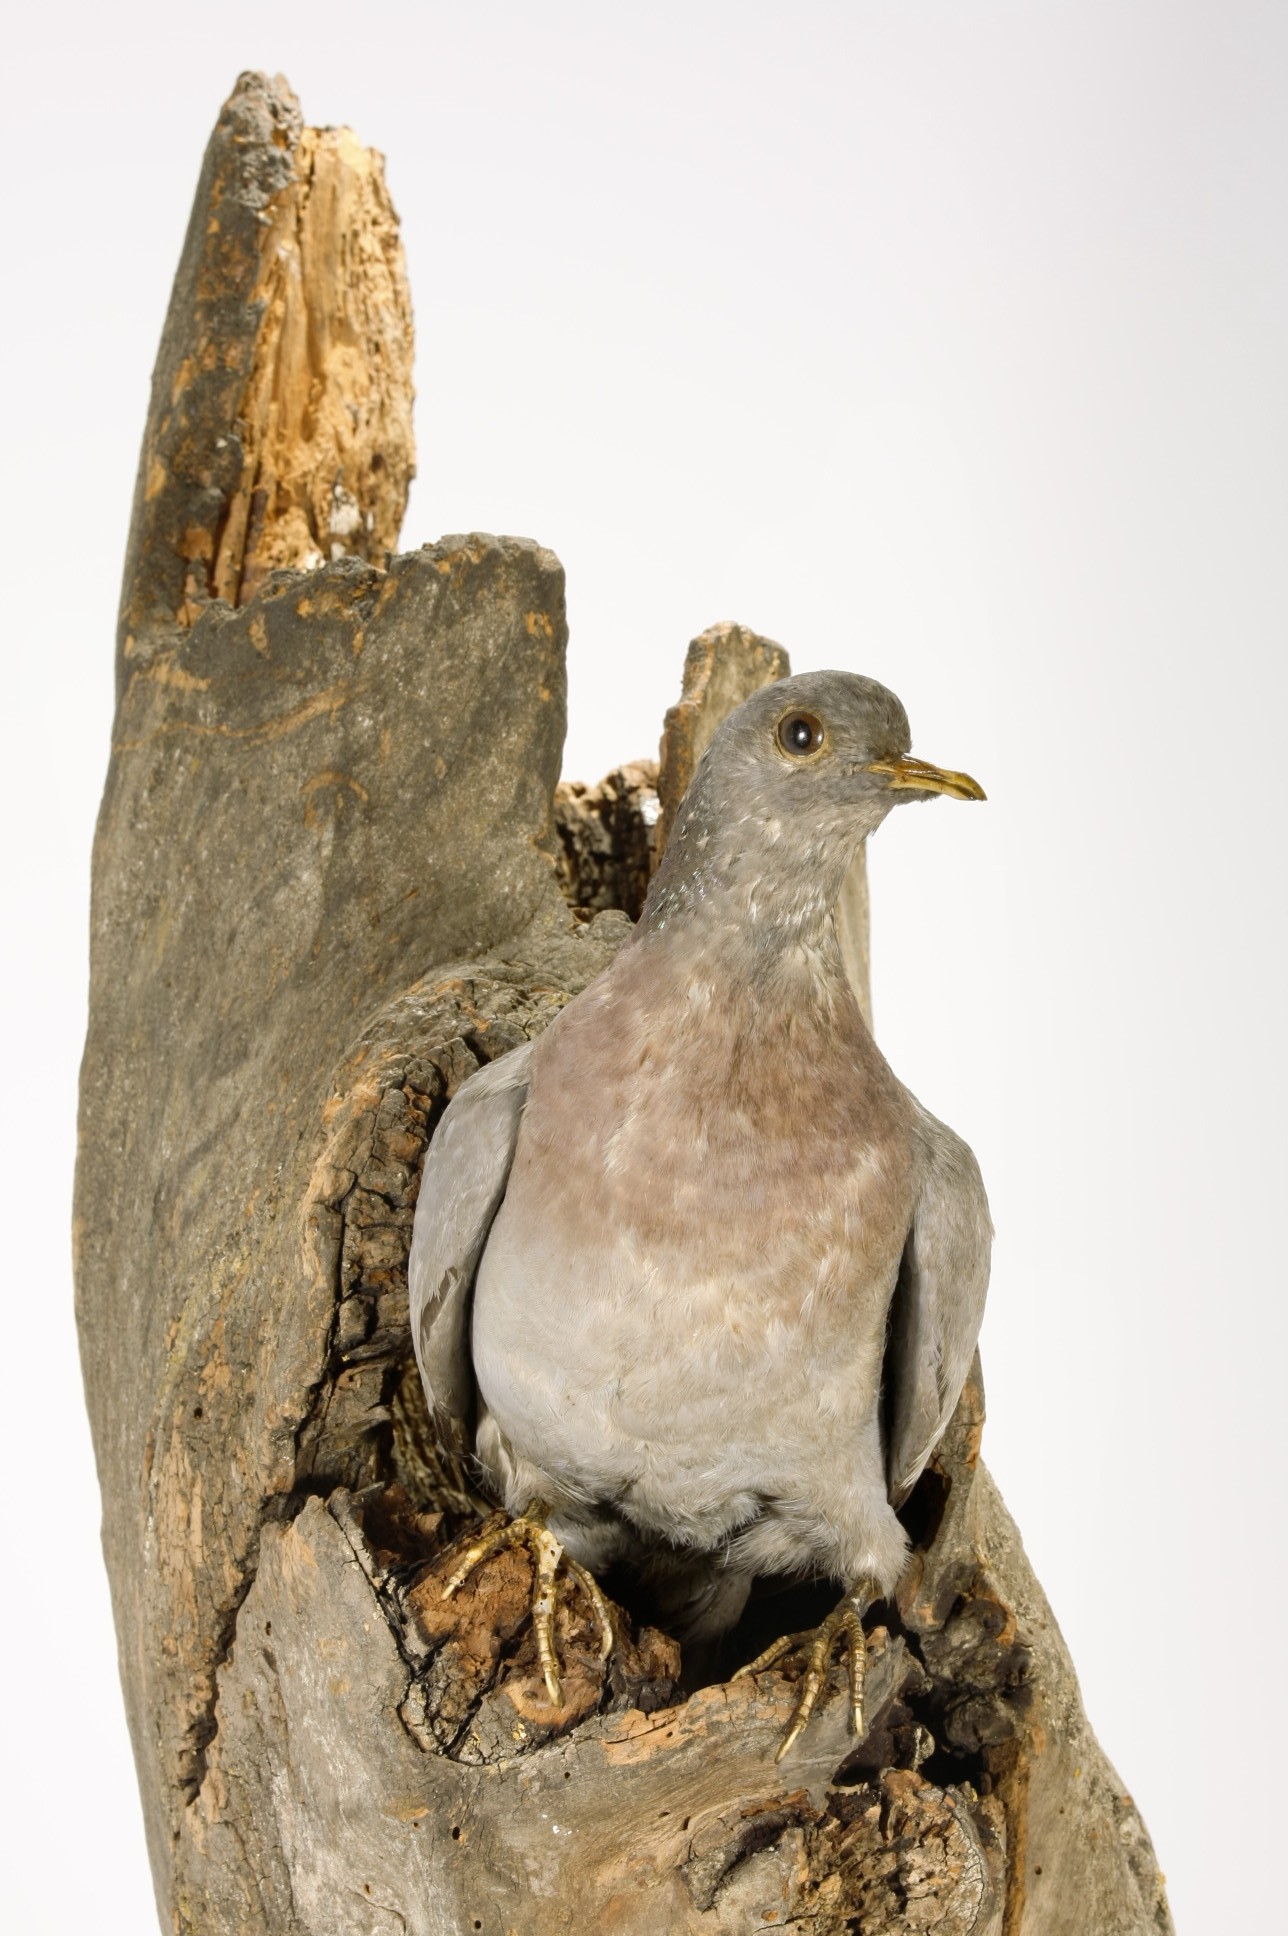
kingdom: Animalia
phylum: Chordata
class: Aves
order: Columbiformes
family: Columbidae
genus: Columba
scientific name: Columba oenas
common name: Stock dove
